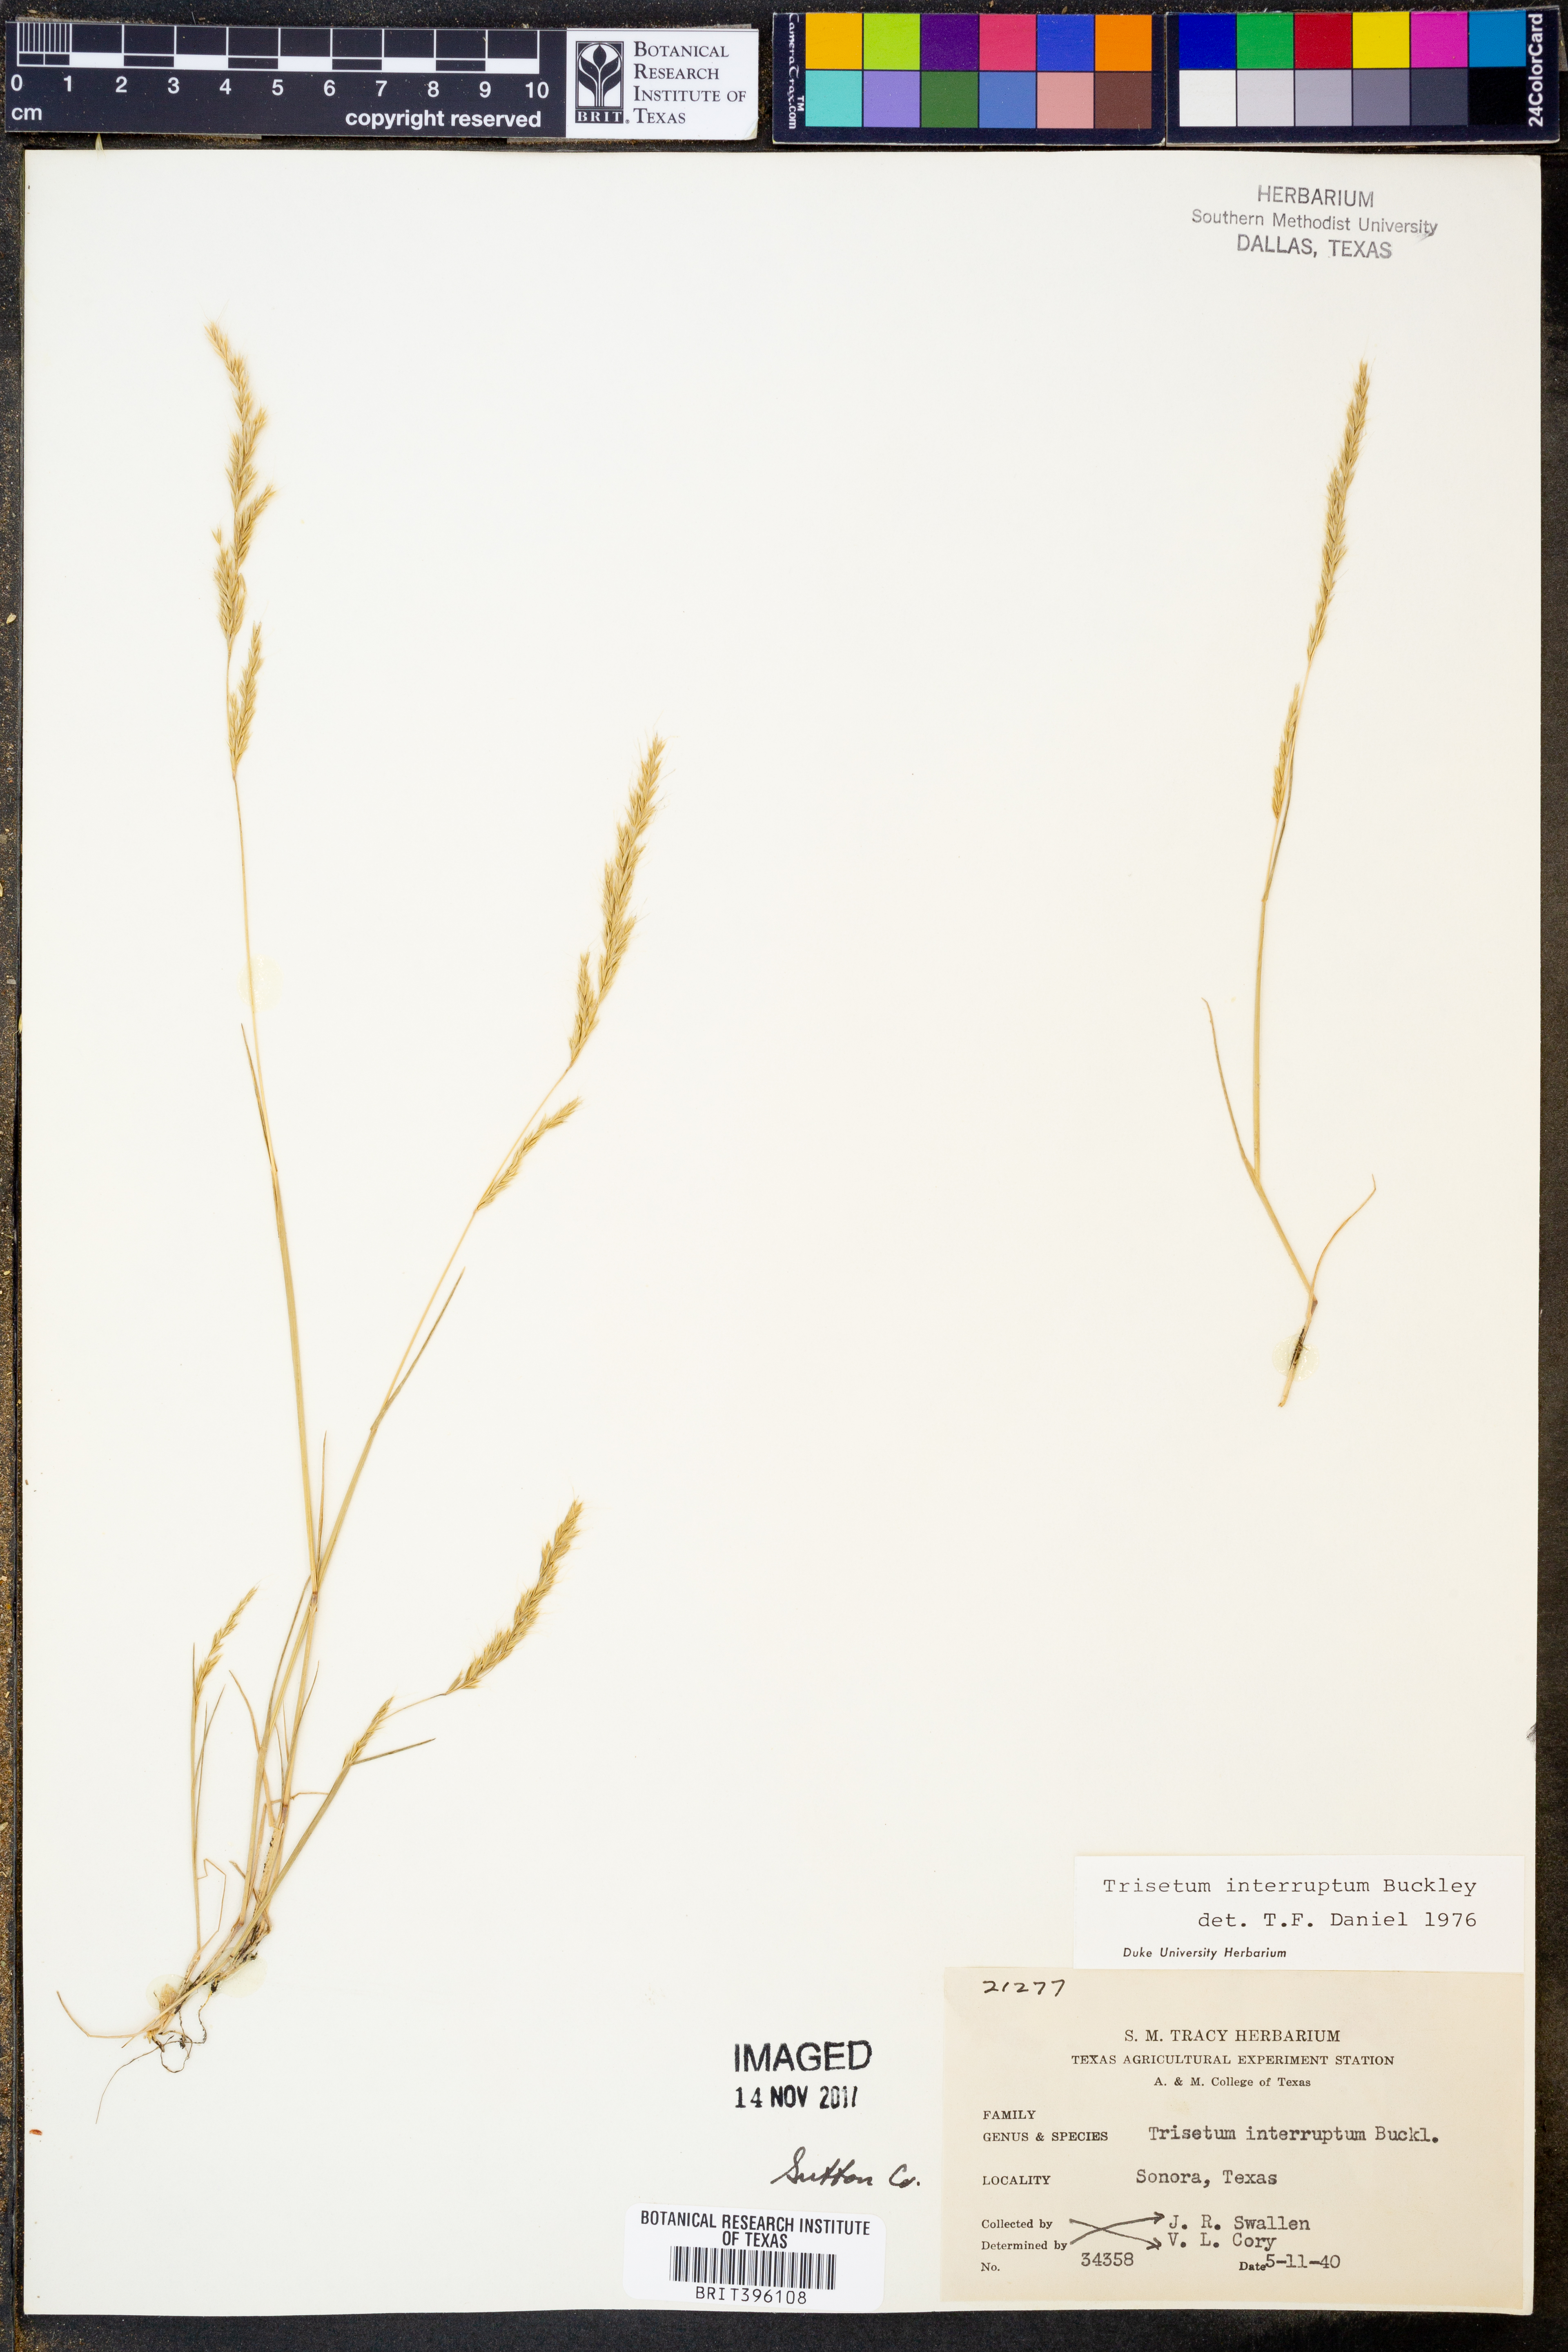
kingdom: Plantae
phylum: Tracheophyta
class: Liliopsida
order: Poales
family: Poaceae
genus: Sphenopholis
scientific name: Sphenopholis interrupta
